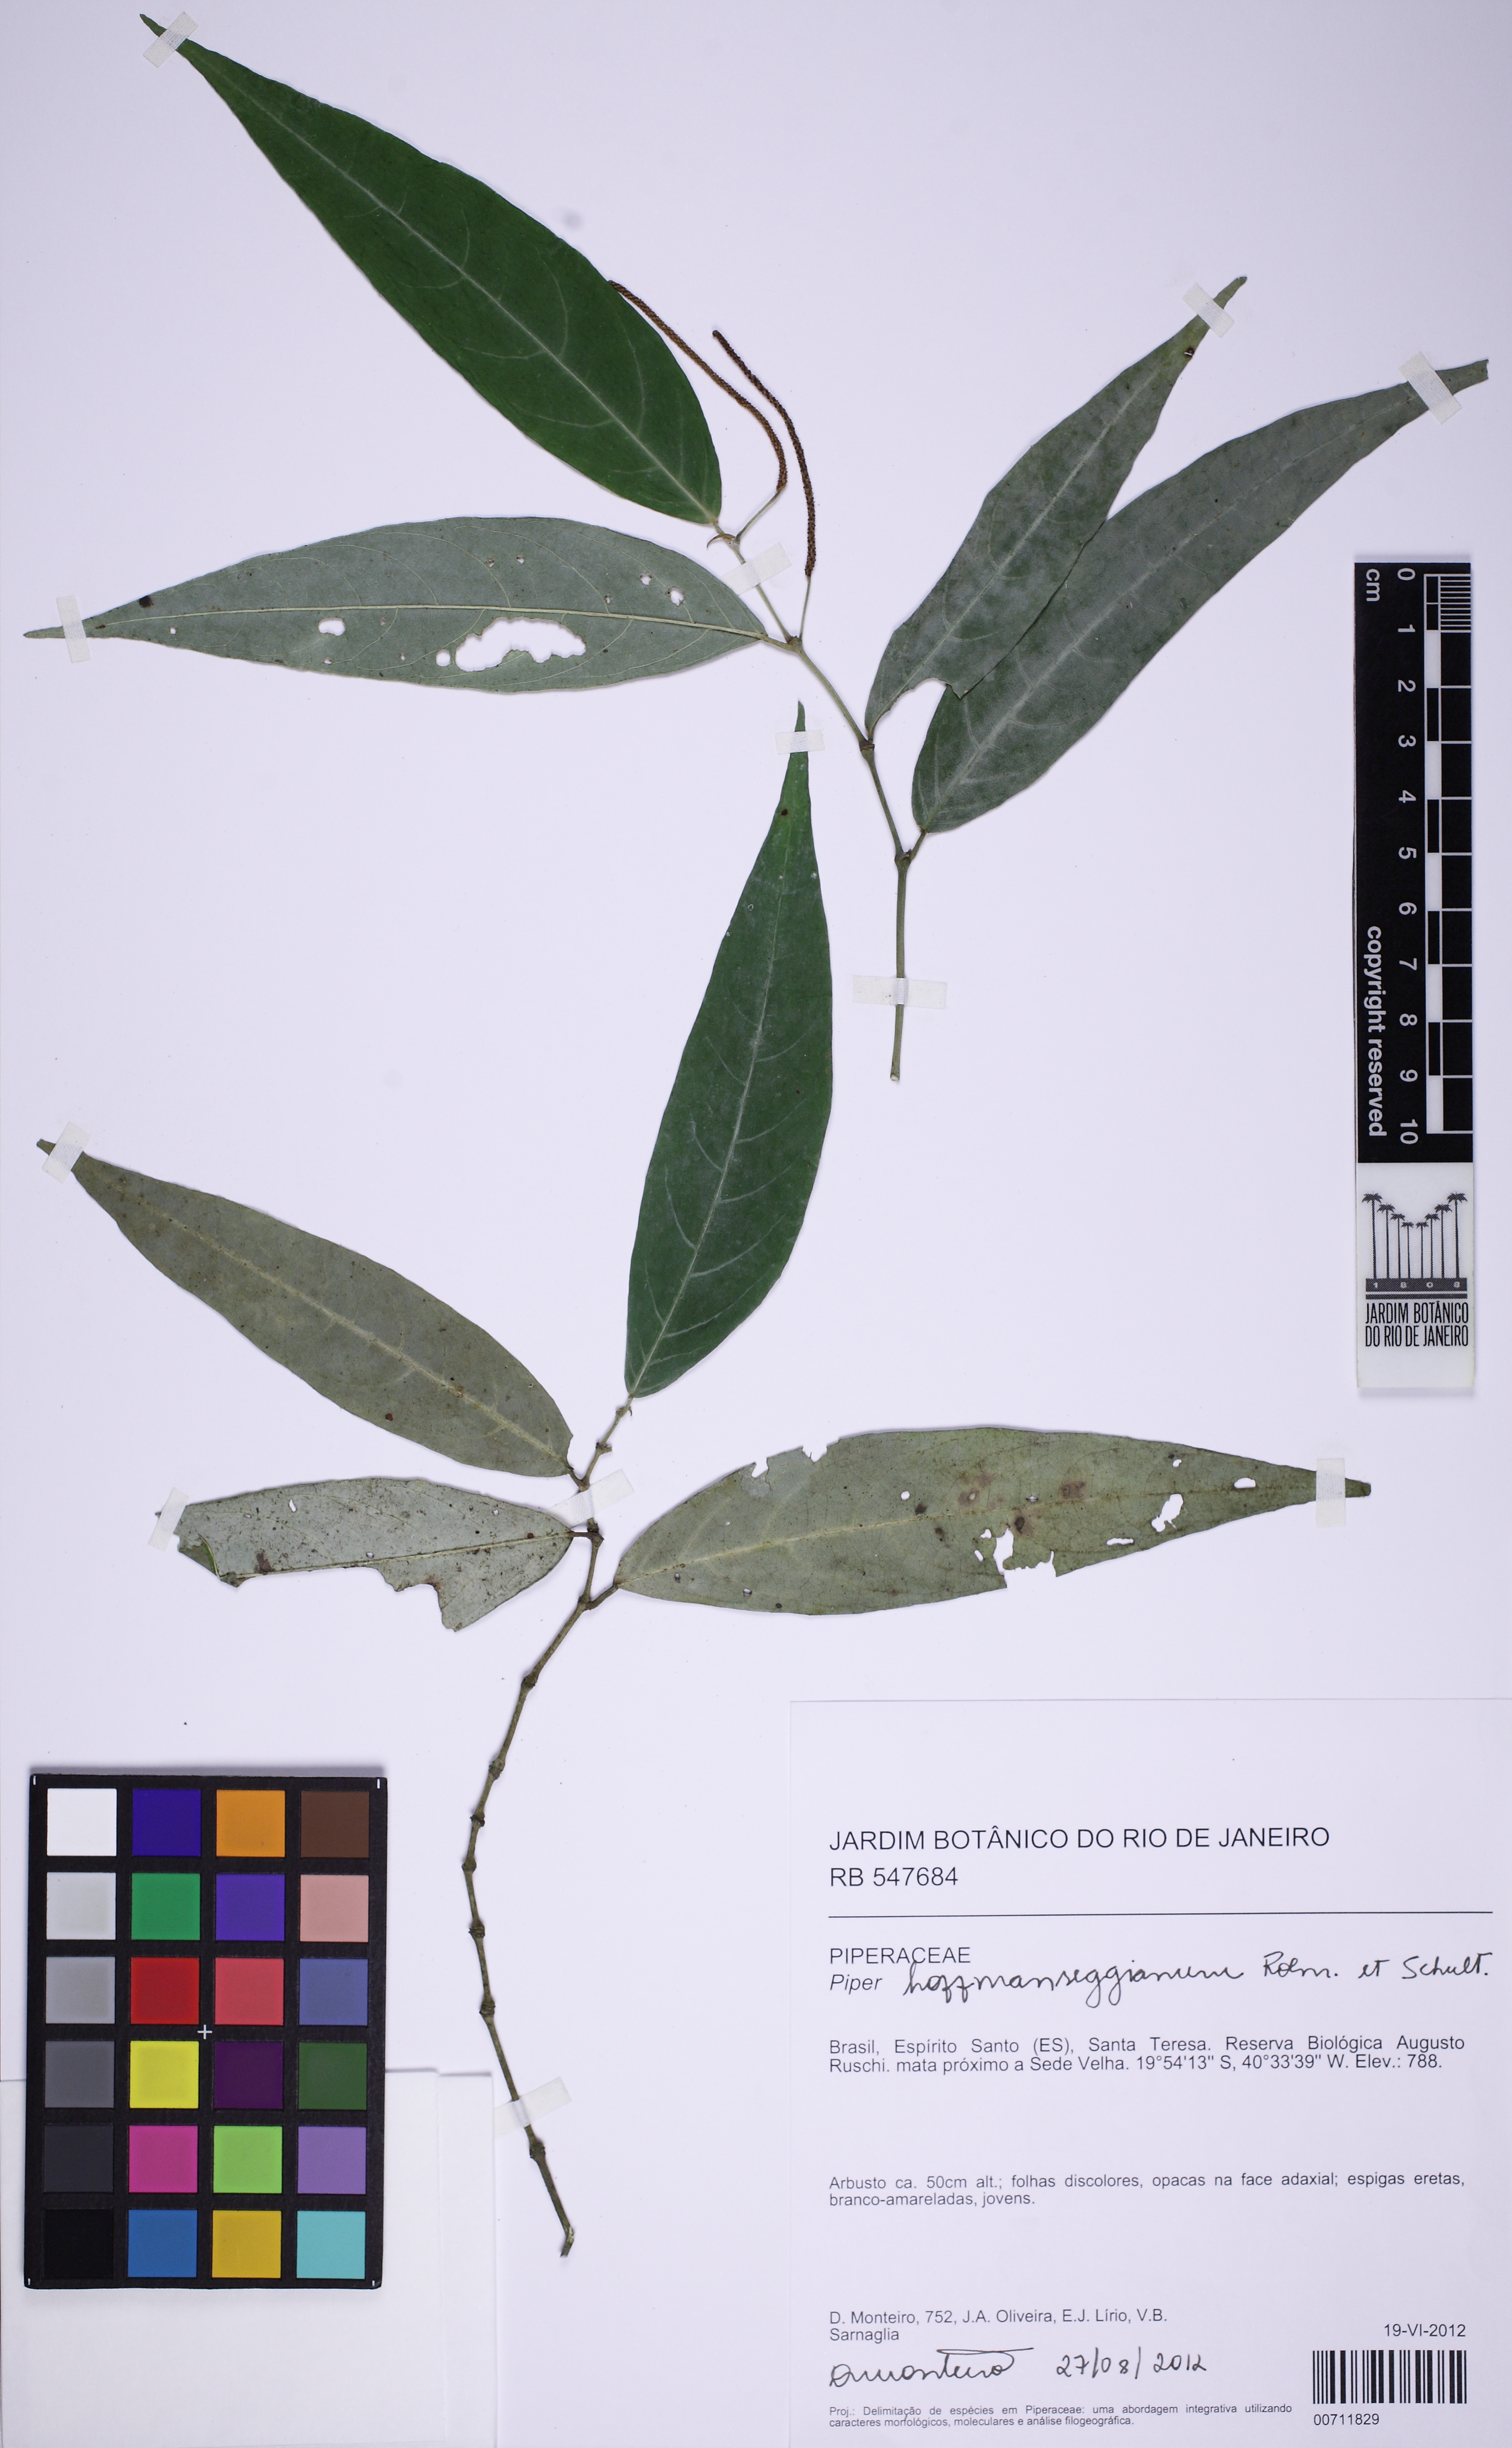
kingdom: Plantae
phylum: Tracheophyta
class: Magnoliopsida
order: Piperales
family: Piperaceae
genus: Piper
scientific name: Piper hoffmannseggianum
